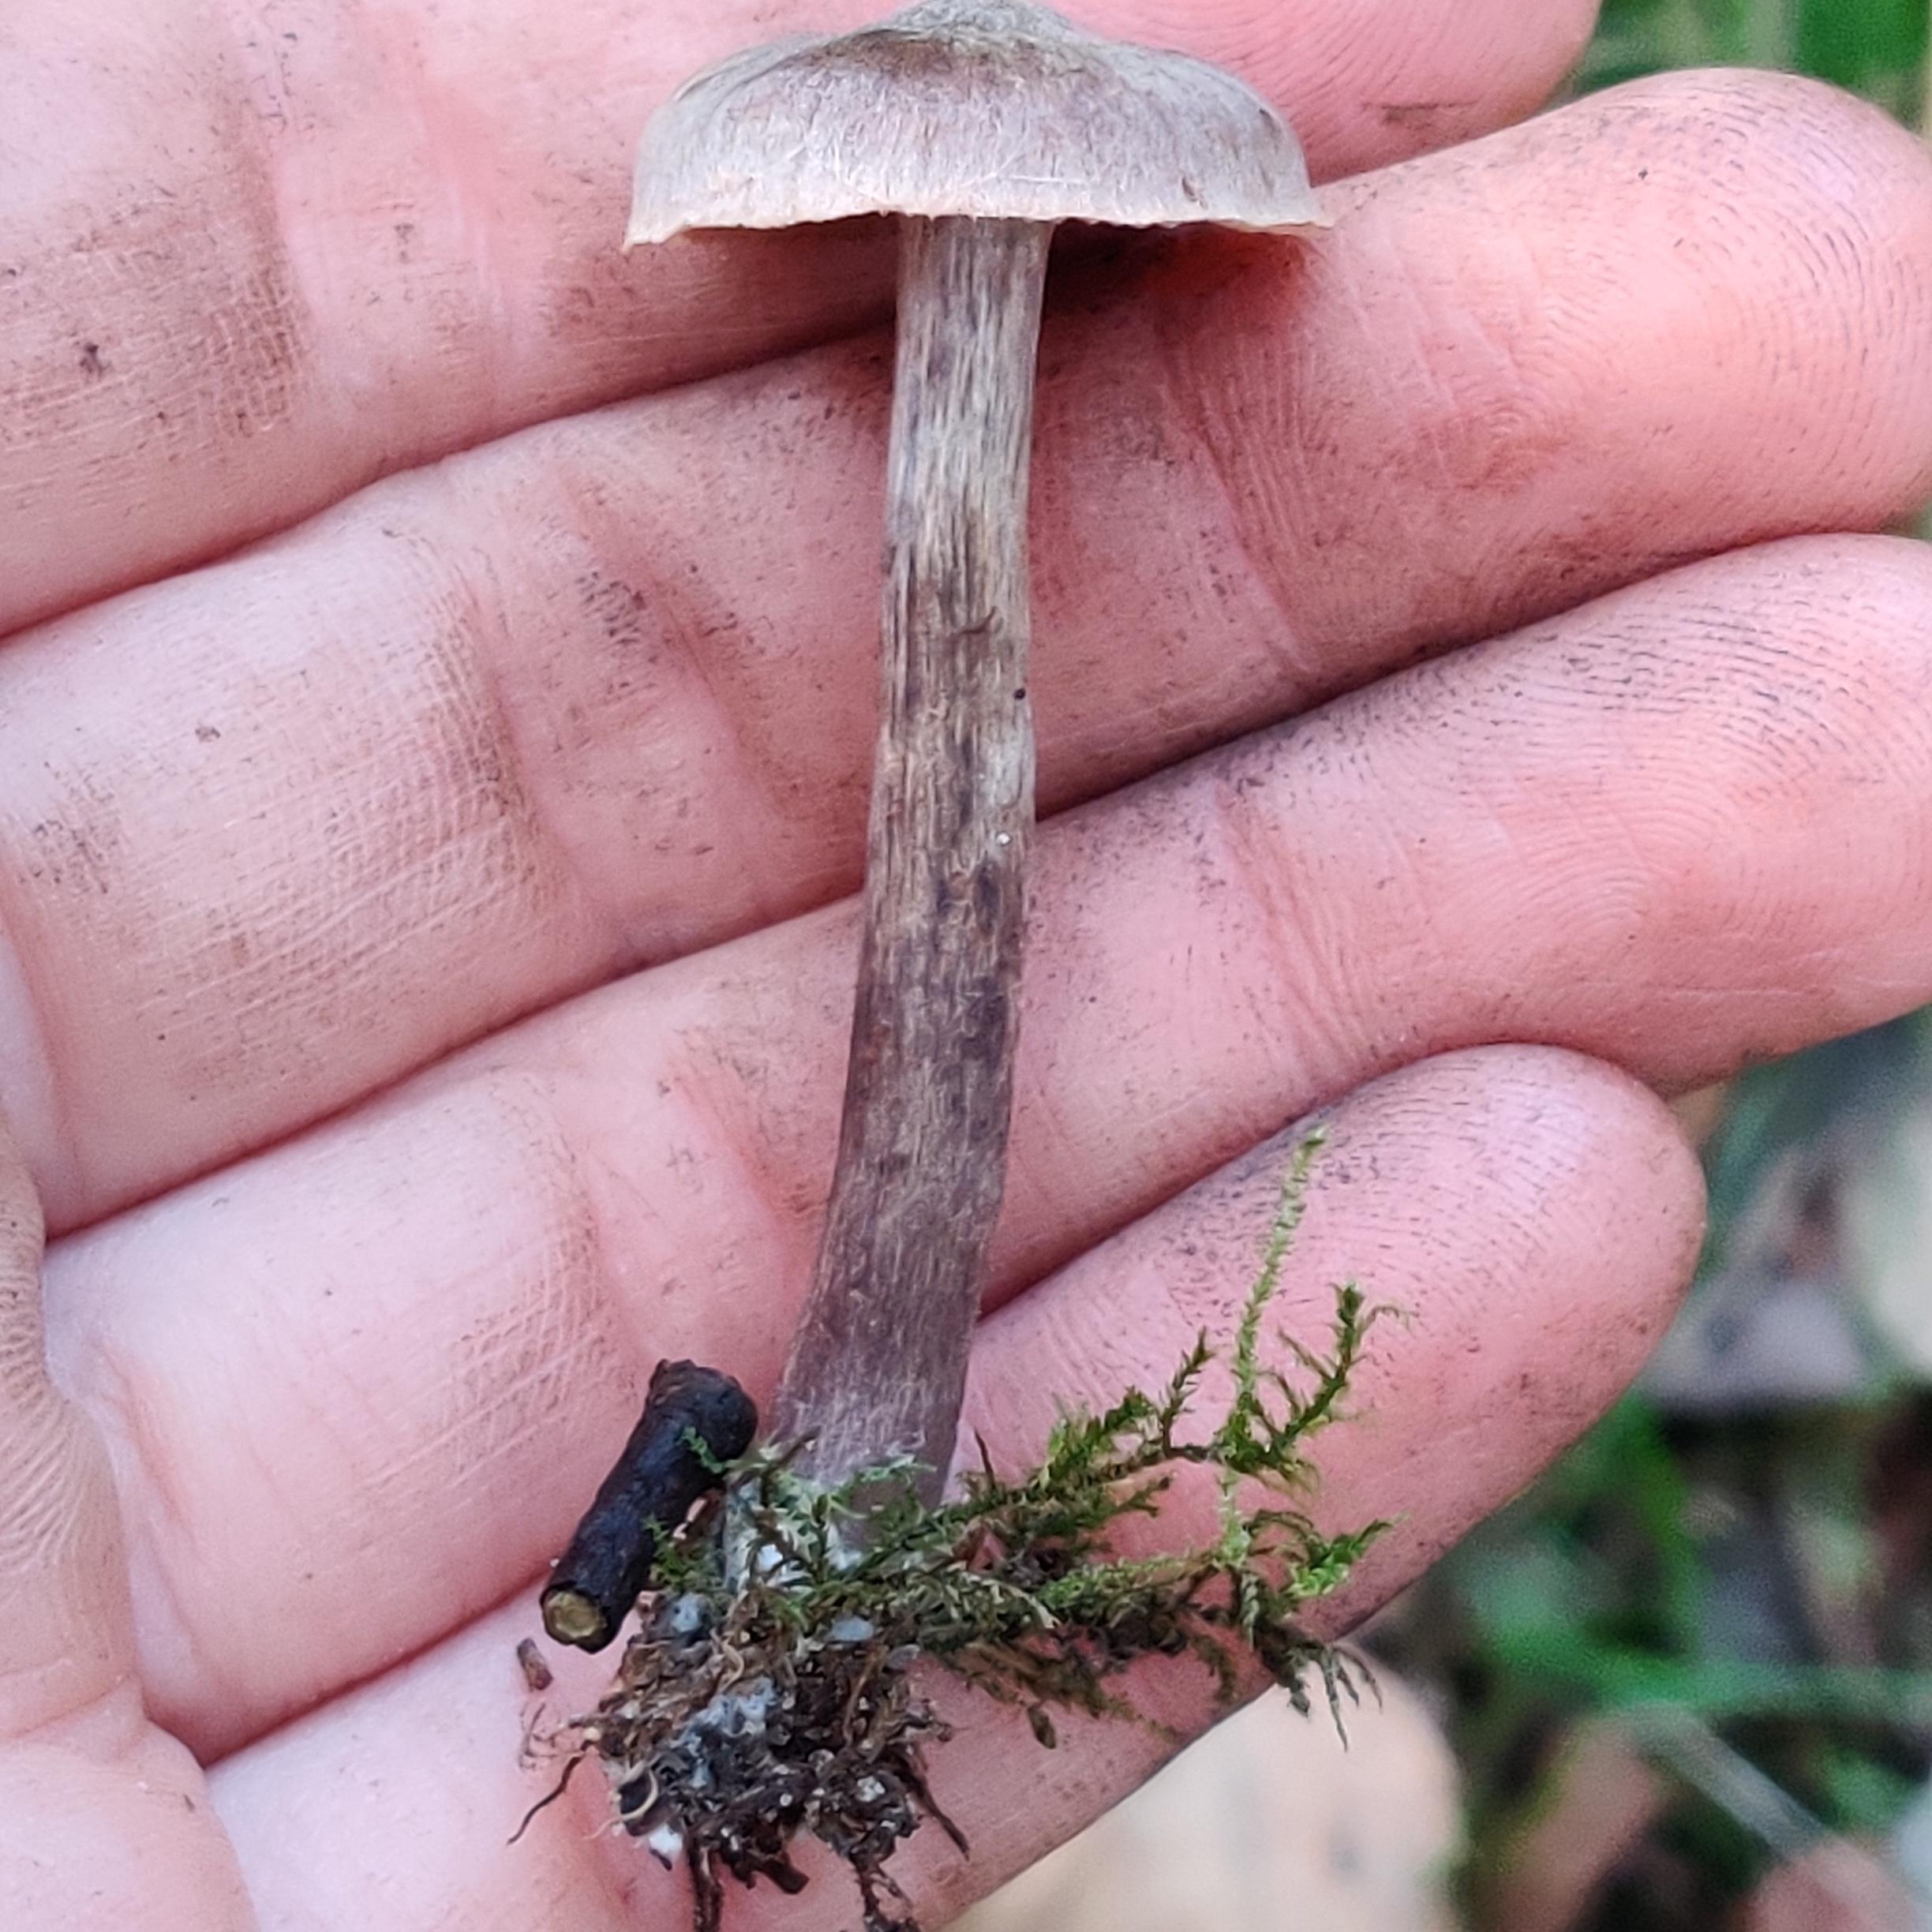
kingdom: Fungi
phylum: Basidiomycota
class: Agaricomycetes
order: Agaricales
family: Cortinariaceae
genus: Cortinarius
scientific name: Cortinarius
